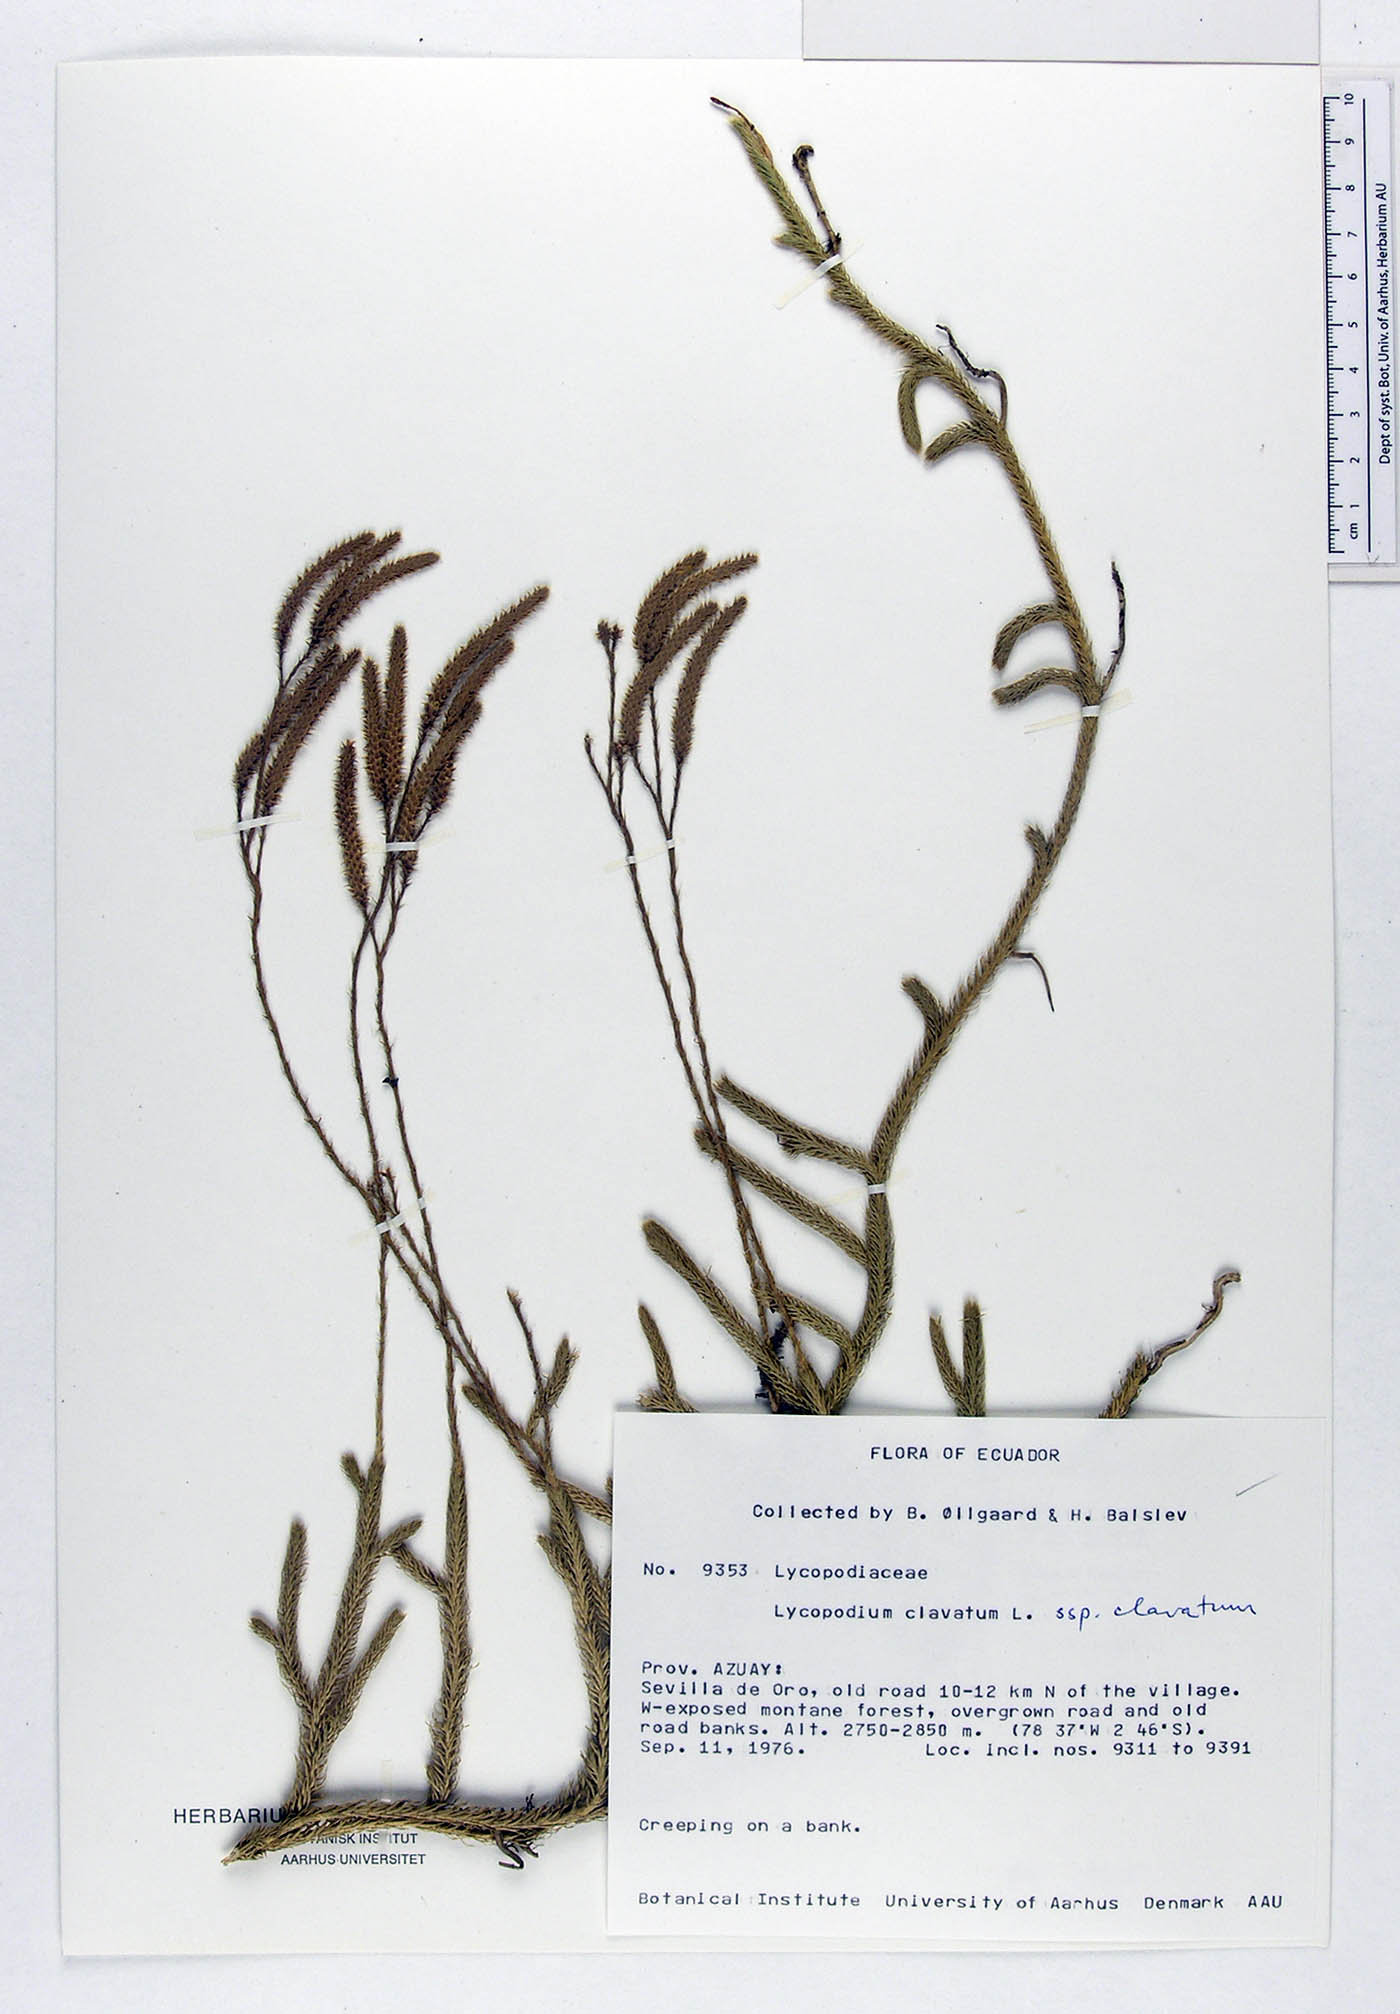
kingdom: Plantae
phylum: Tracheophyta
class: Lycopodiopsida
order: Lycopodiales
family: Lycopodiaceae
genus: Lycopodium
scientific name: Lycopodium clavatum
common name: Stag's-horn clubmoss
